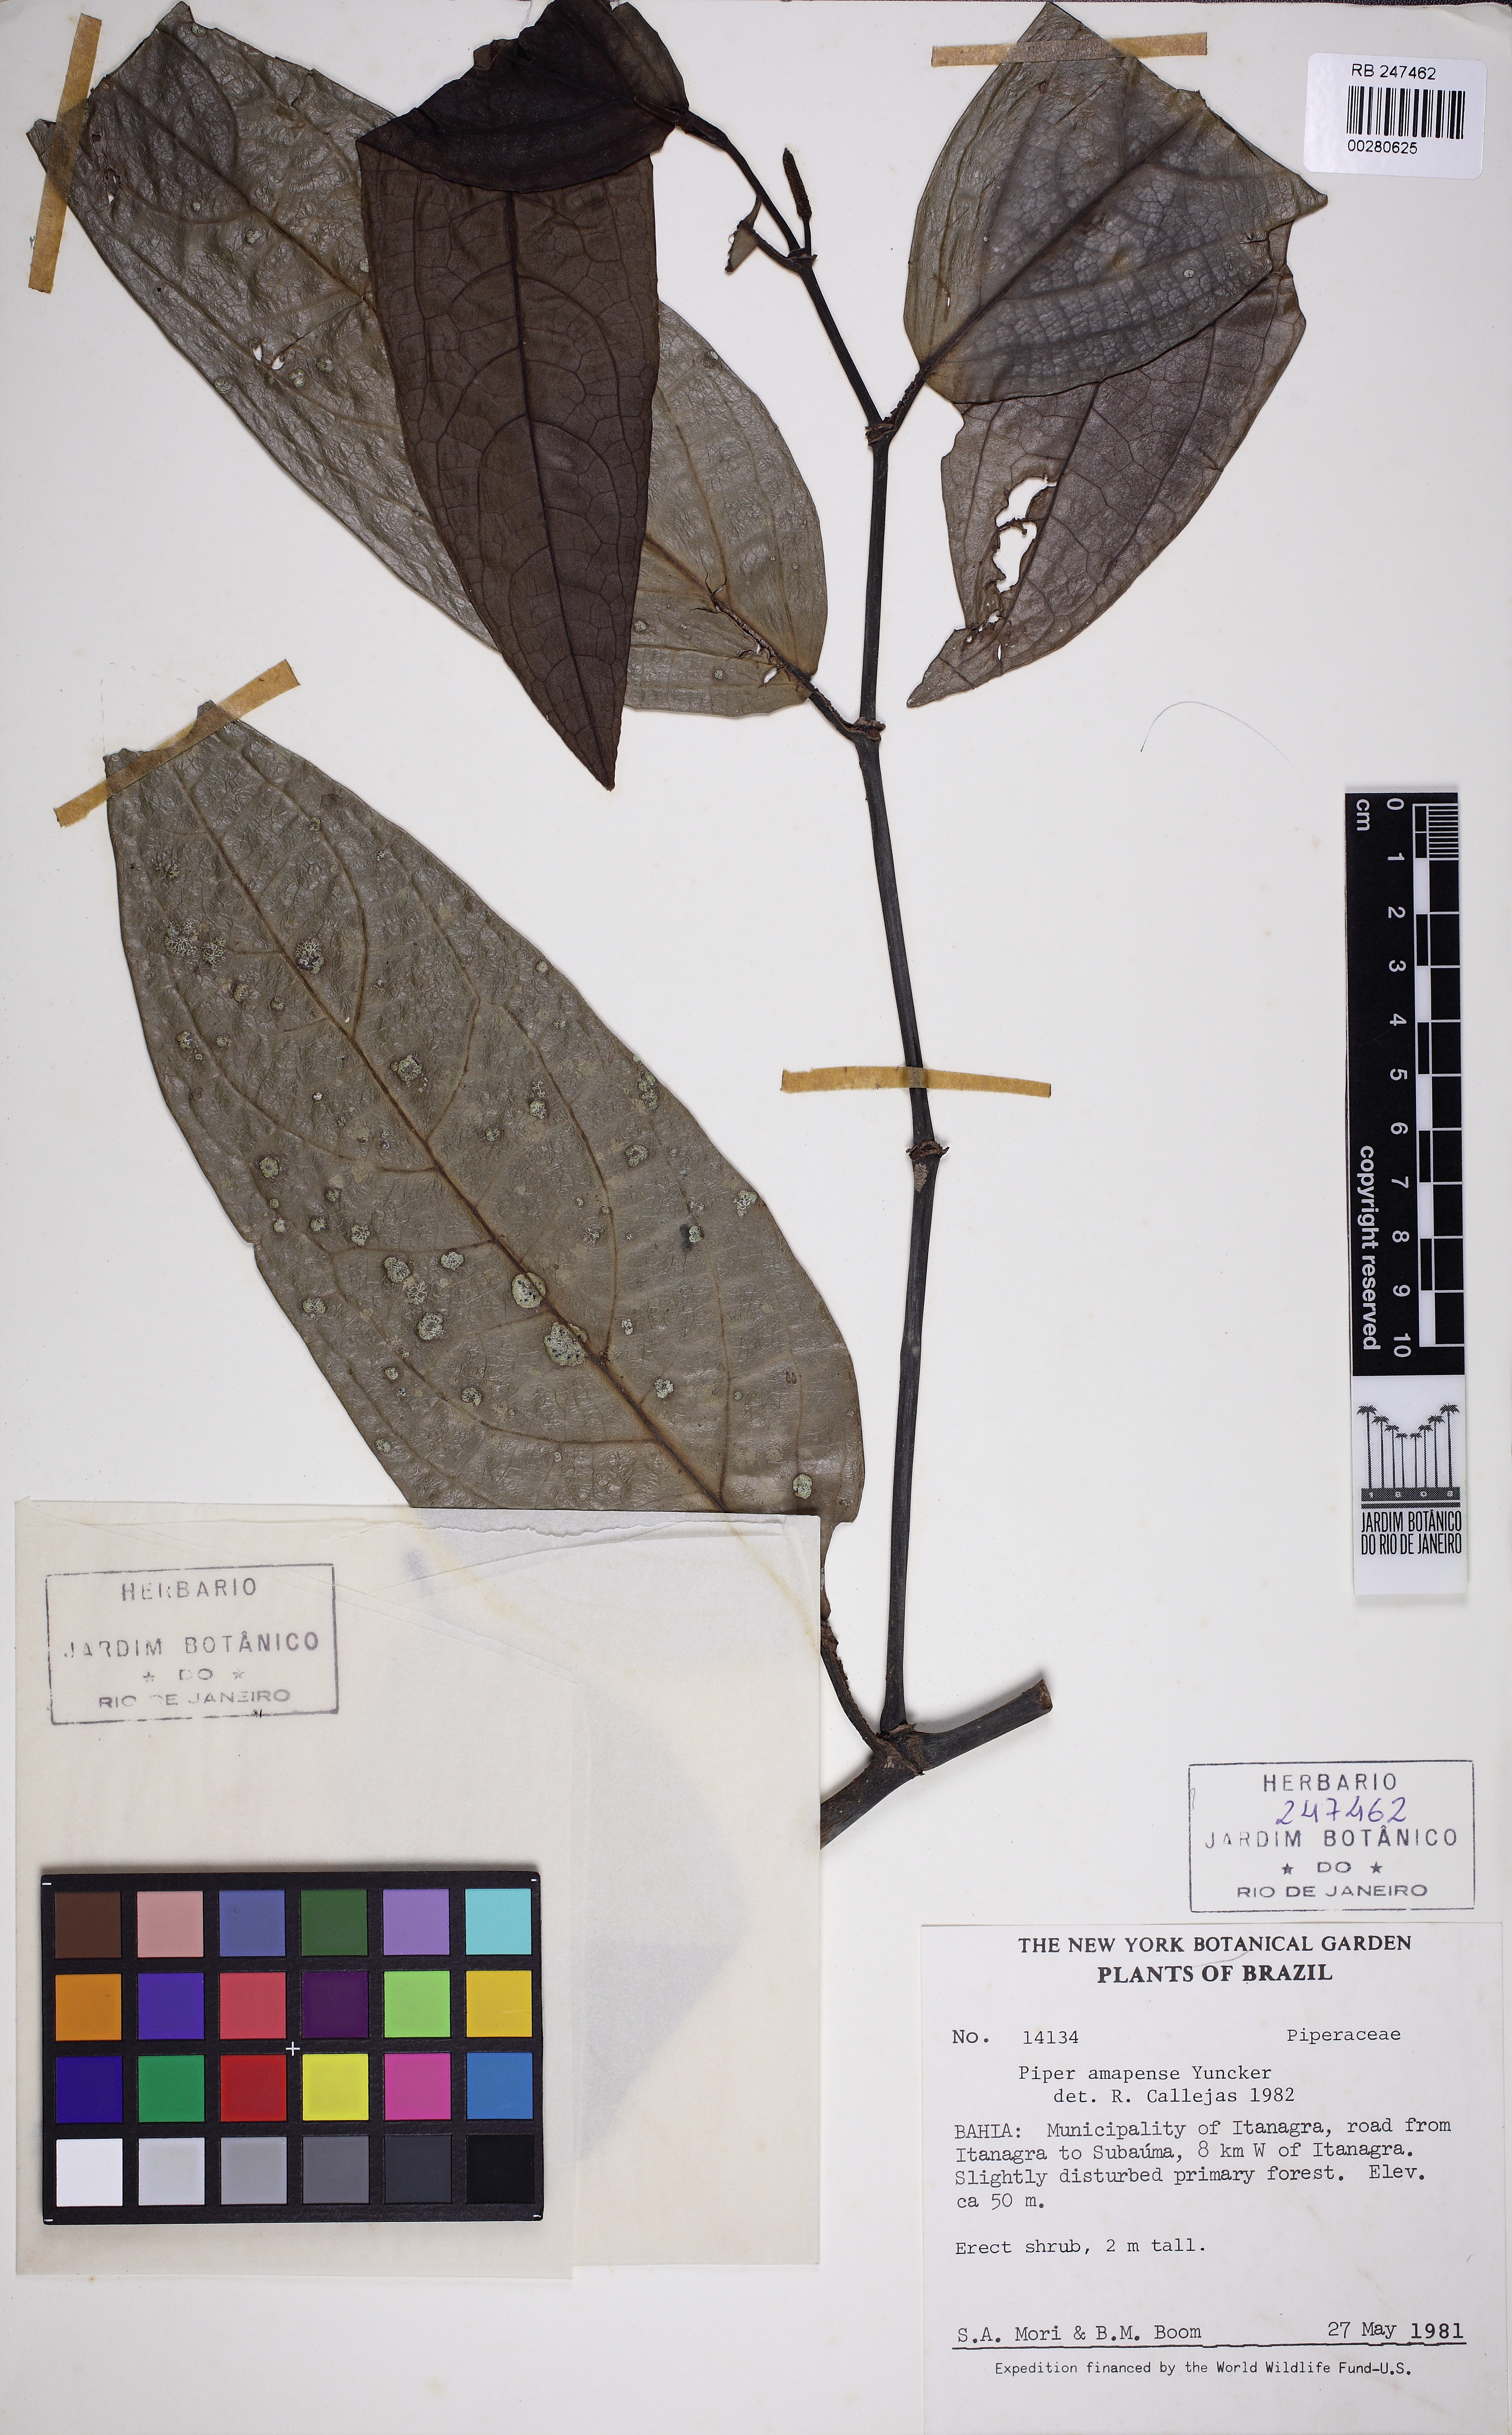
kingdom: Plantae
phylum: Tracheophyta
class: Magnoliopsida
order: Piperales
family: Piperaceae
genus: Piper
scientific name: Piper inaequale
